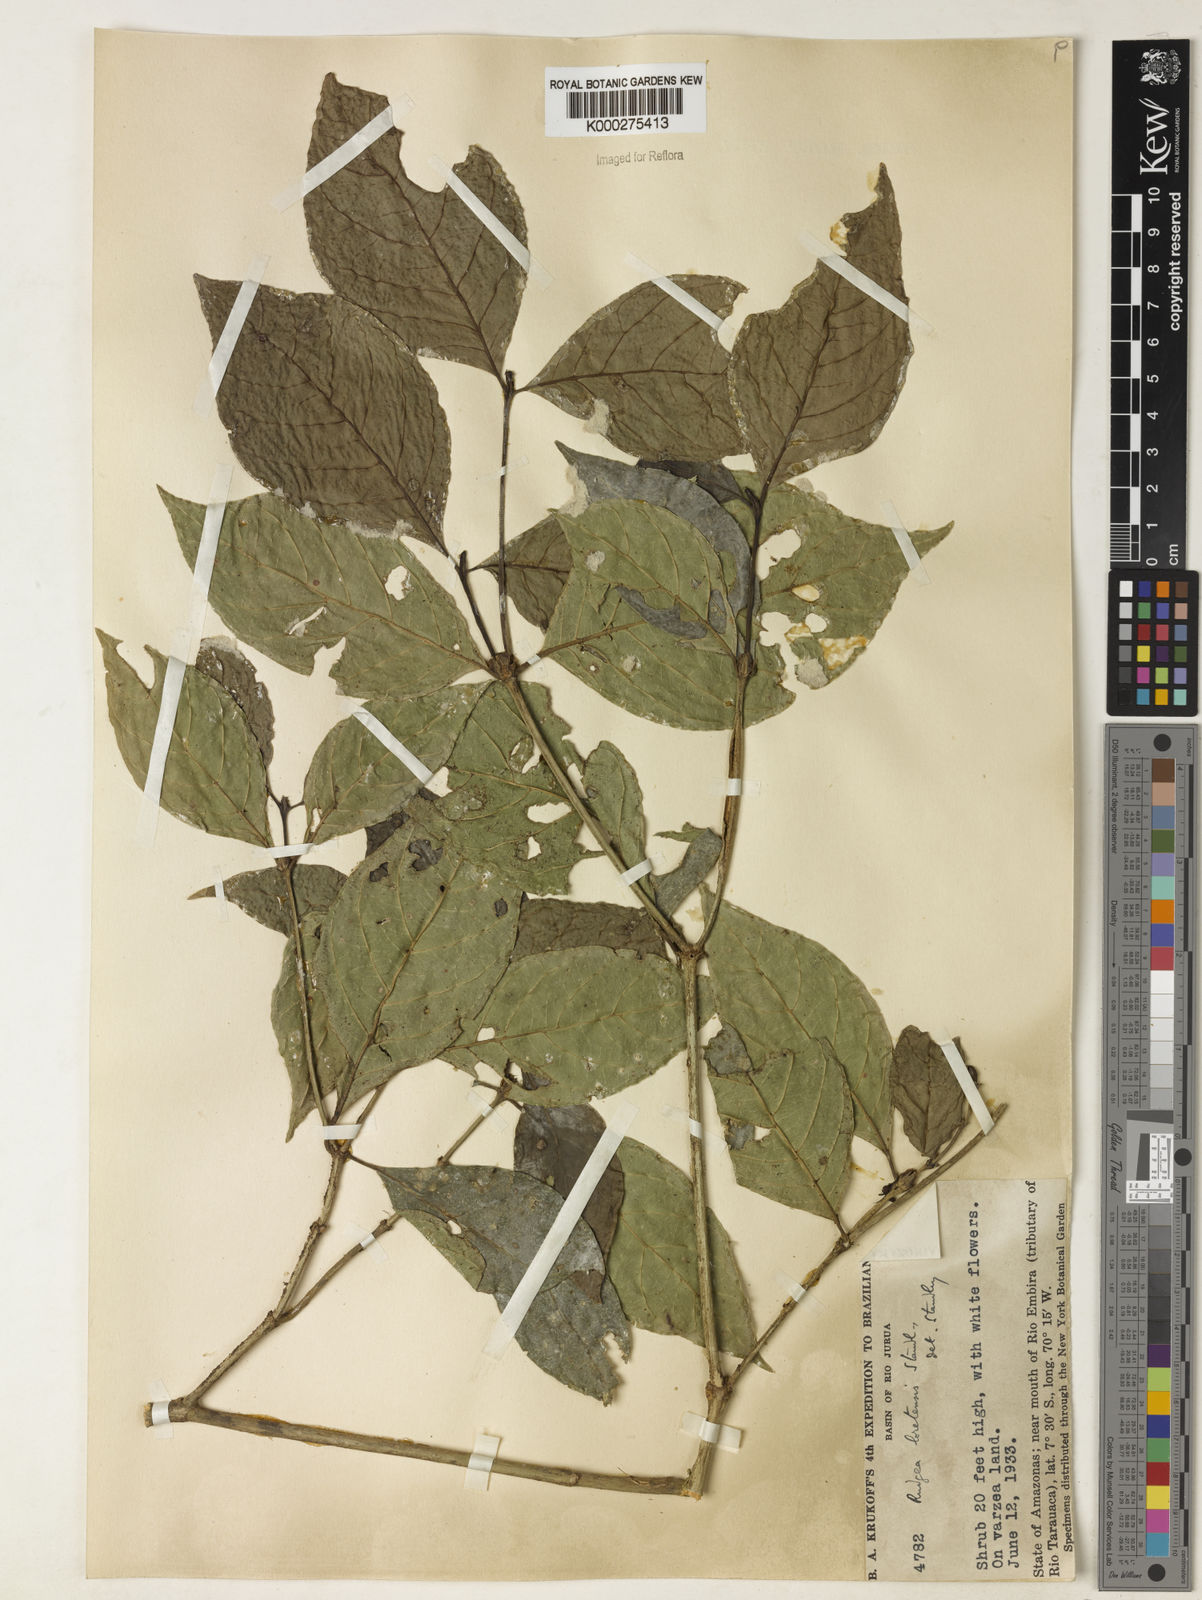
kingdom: Plantae
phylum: Tracheophyta
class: Magnoliopsida
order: Gentianales
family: Rubiaceae
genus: Rudgea
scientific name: Rudgea loretensis
